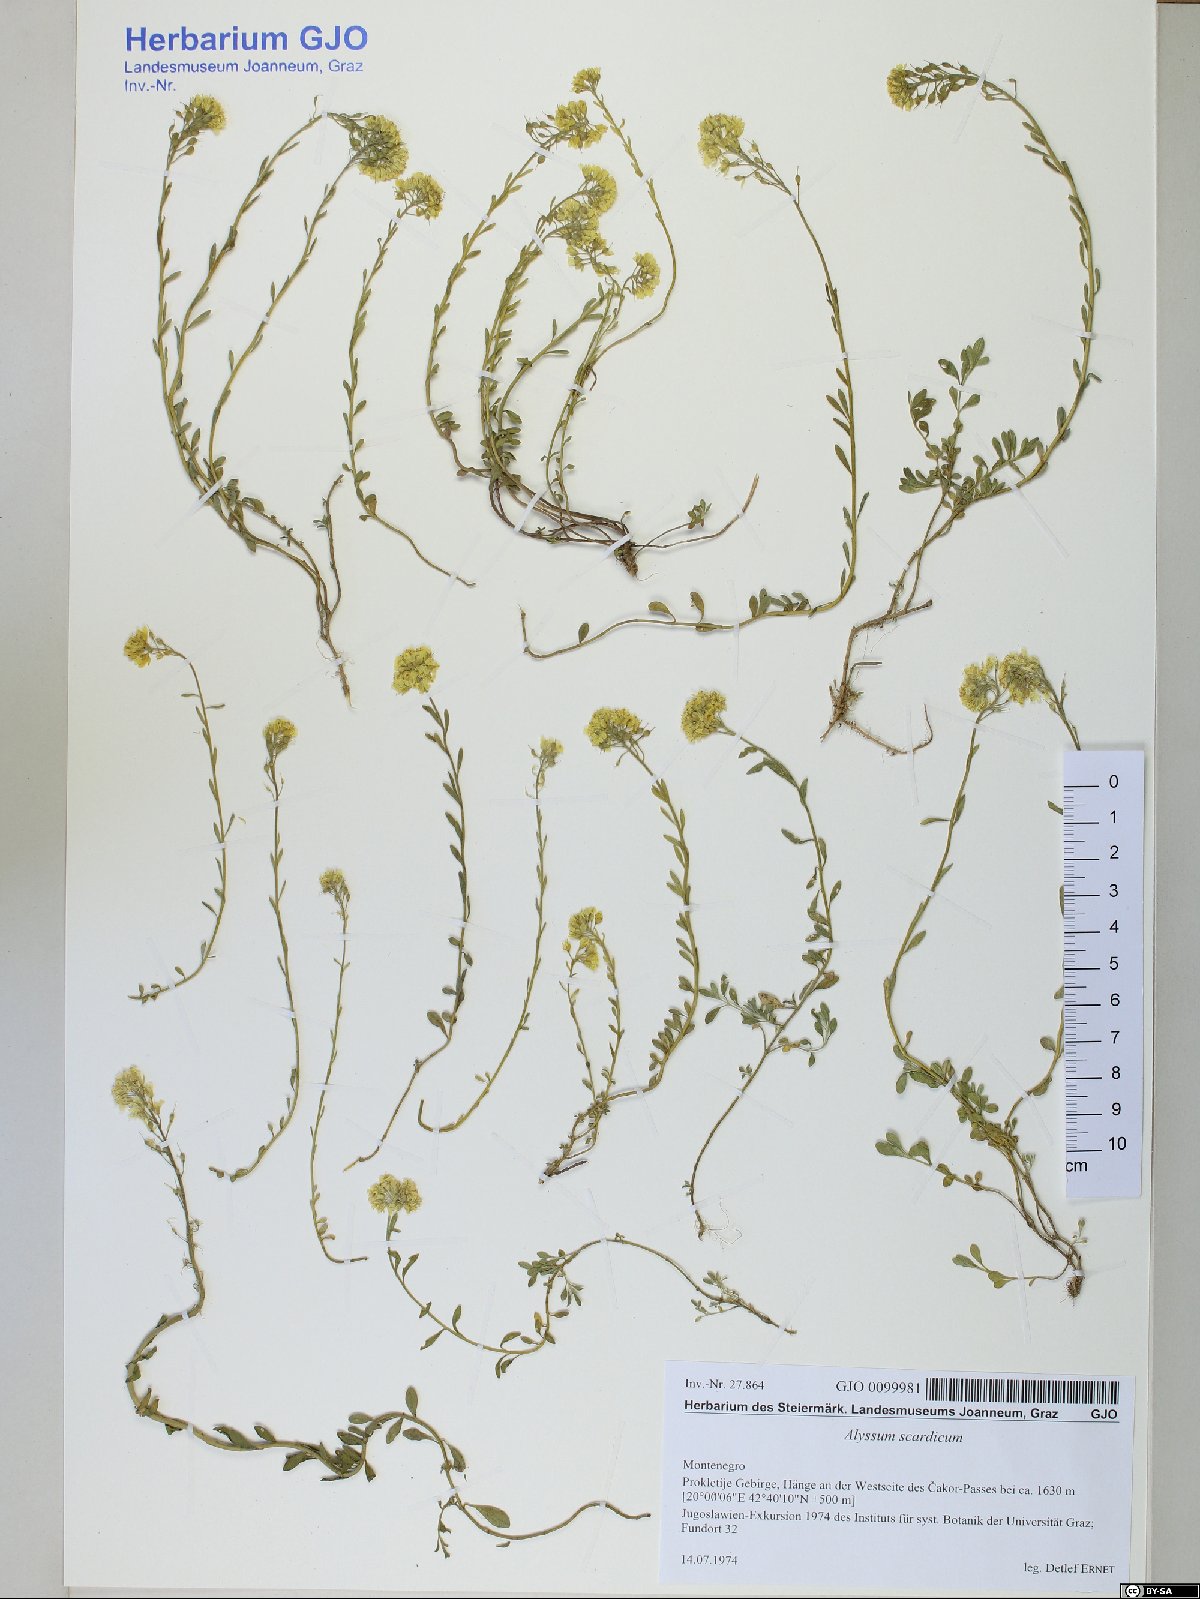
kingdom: Plantae
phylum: Tracheophyta
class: Magnoliopsida
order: Brassicales
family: Brassicaceae
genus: Alyssum
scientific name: Alyssum pirinicum
